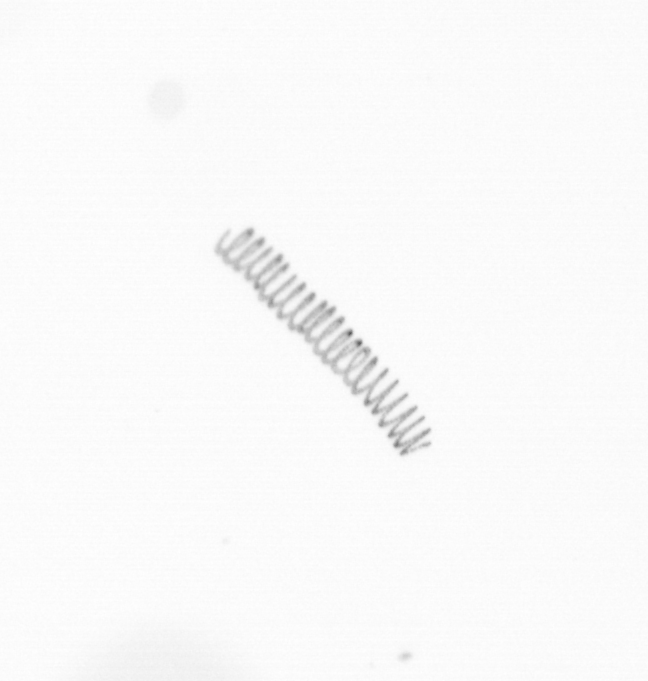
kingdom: Chromista
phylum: Ochrophyta
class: Bacillariophyceae
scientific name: Bacillariophyceae
